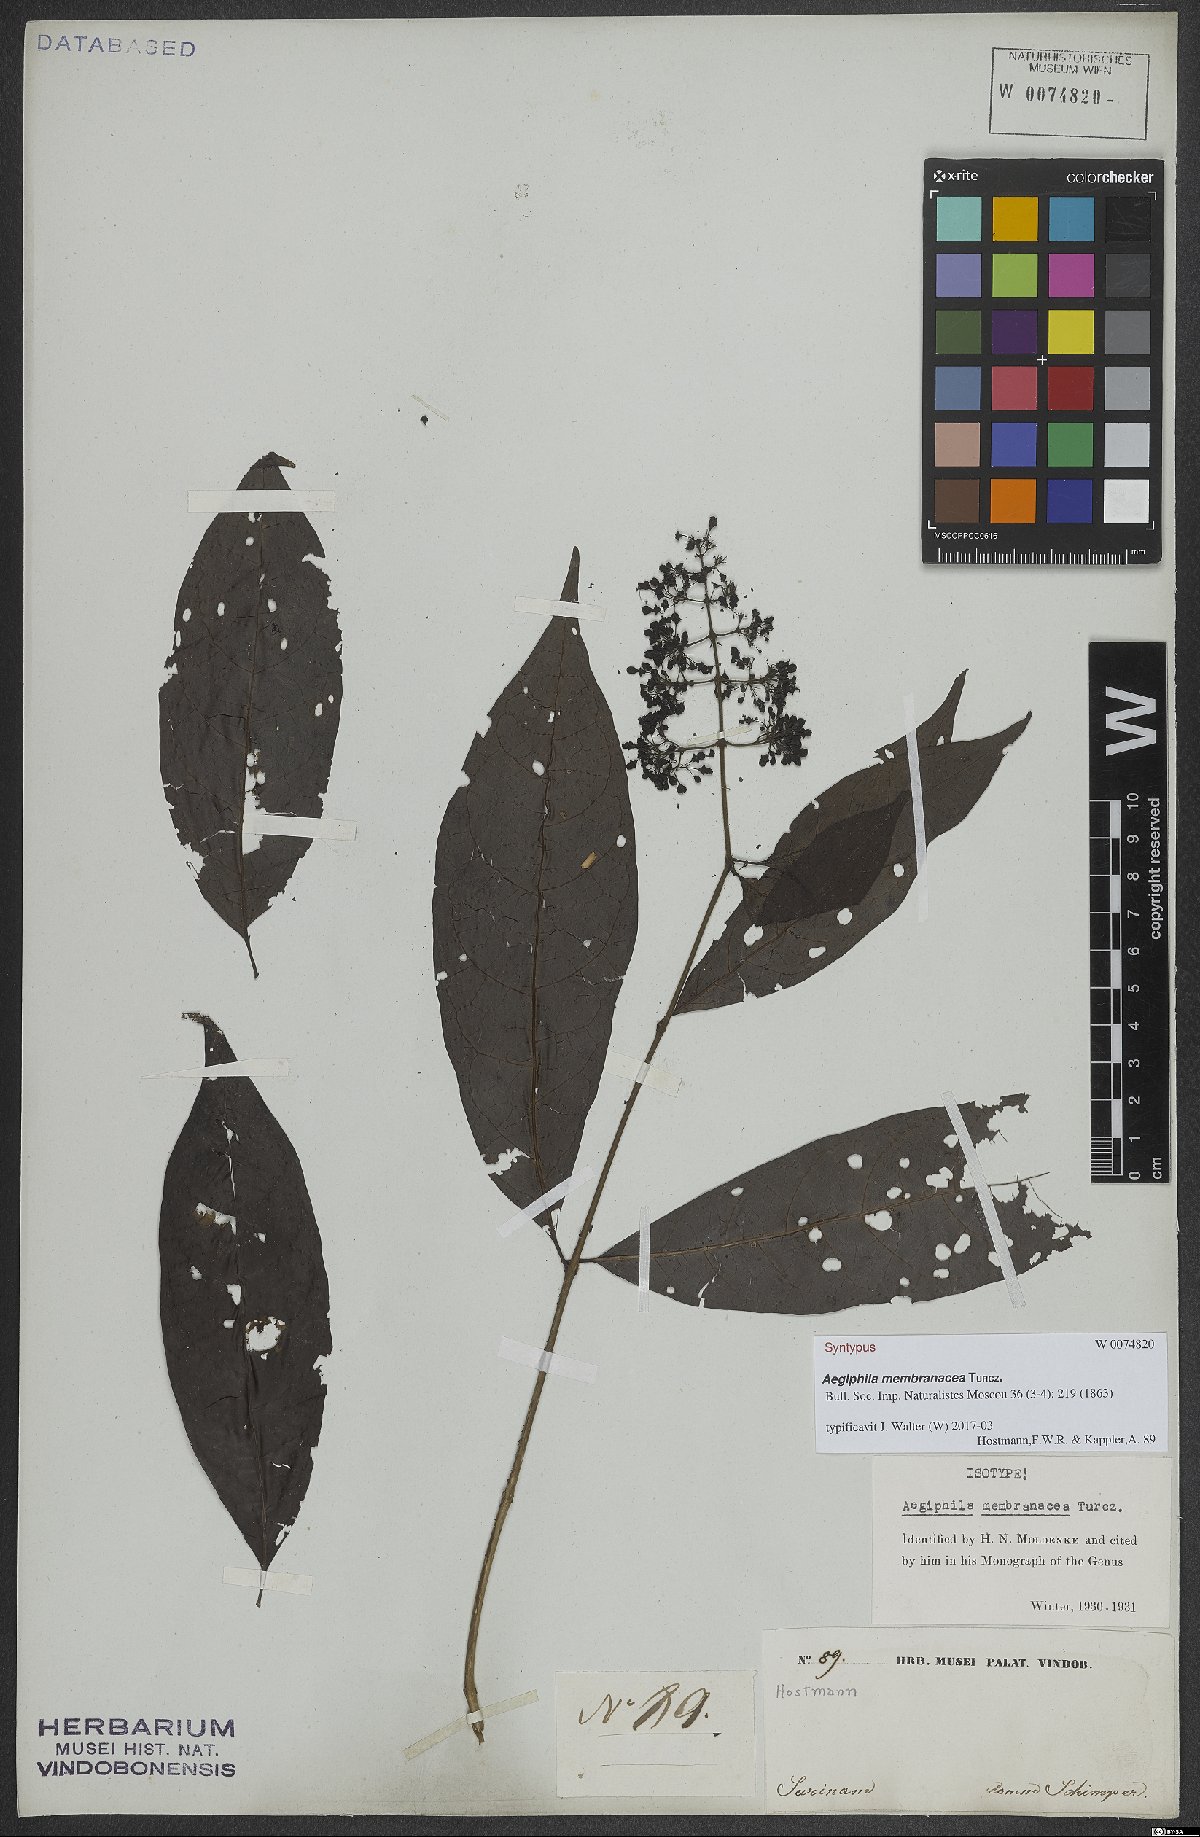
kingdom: Plantae
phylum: Tracheophyta
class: Magnoliopsida
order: Lamiales
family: Lamiaceae
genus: Aegiphila
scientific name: Aegiphila membranacea
